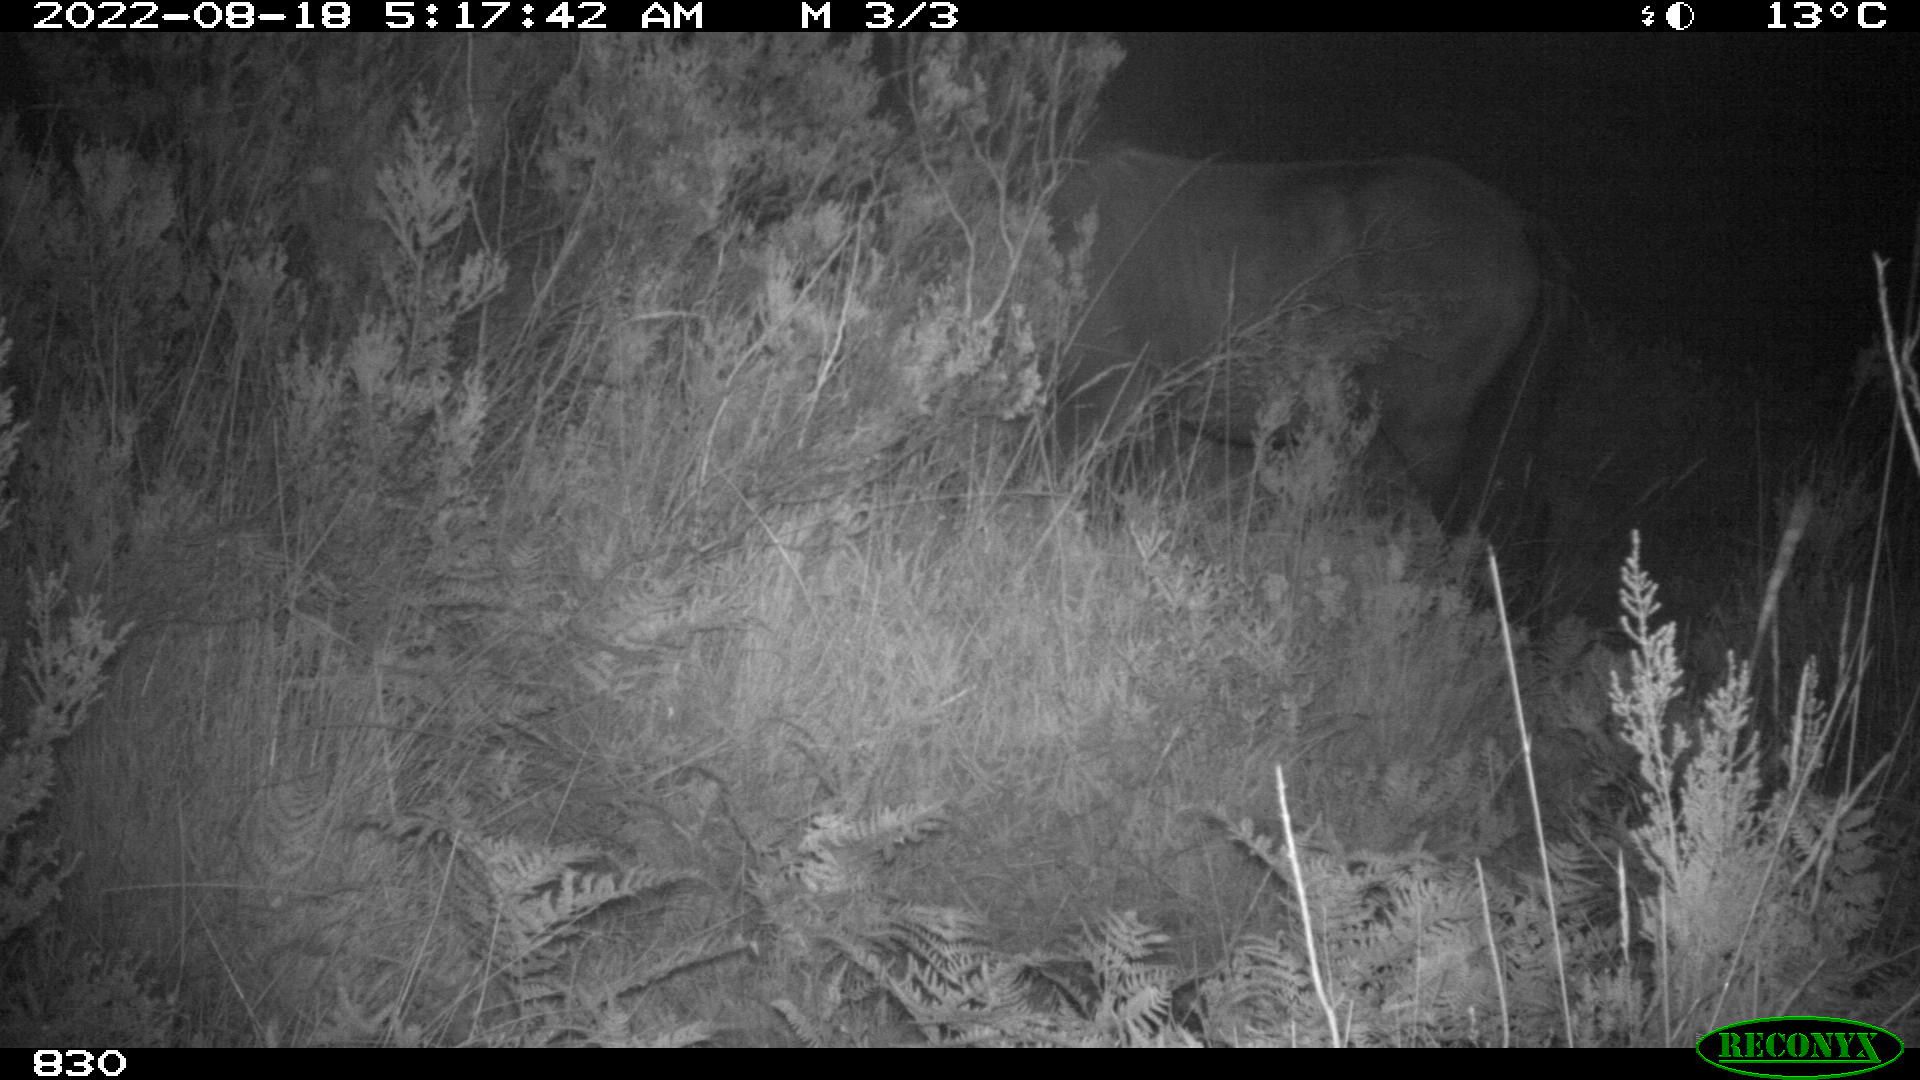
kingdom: Animalia
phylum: Chordata
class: Mammalia
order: Perissodactyla
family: Equidae
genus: Equus
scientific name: Equus caballus
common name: Horse
